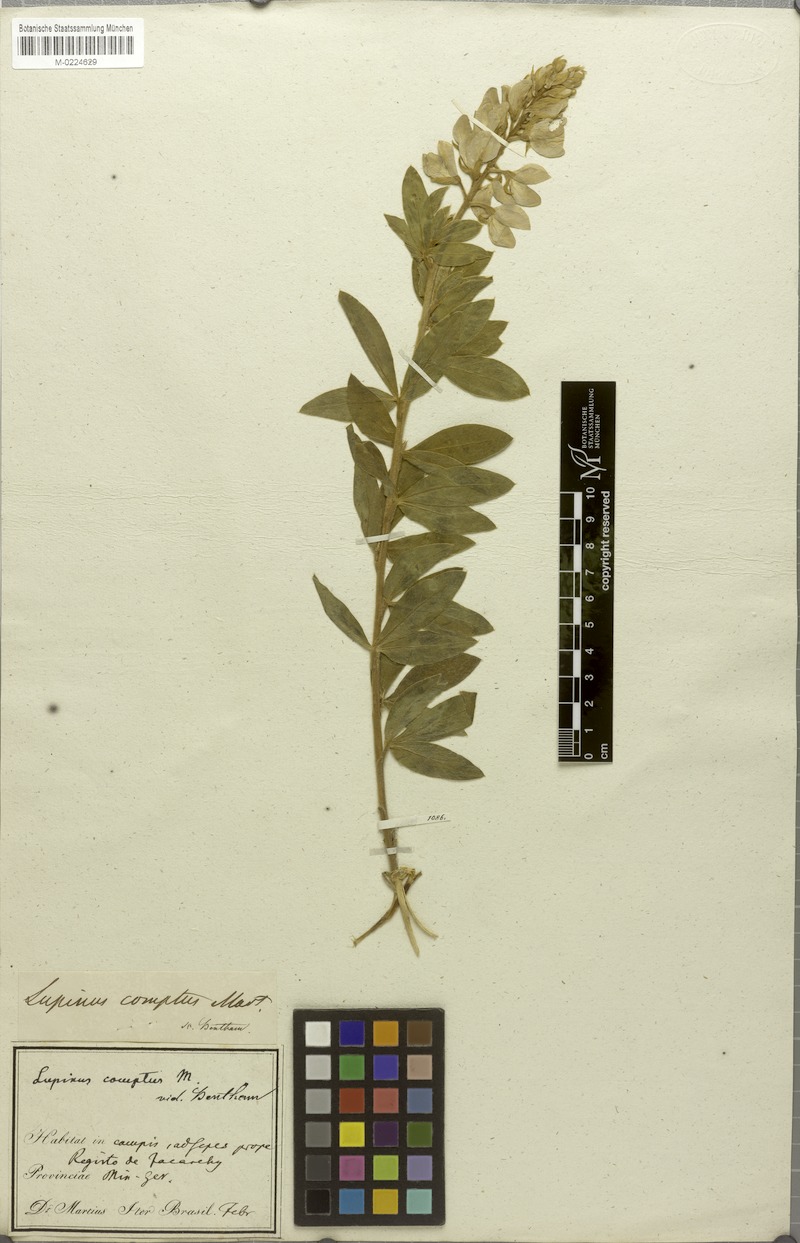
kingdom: Plantae
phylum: Tracheophyta
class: Magnoliopsida
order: Fabales
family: Fabaceae
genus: Lupinus
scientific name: Lupinus comptus
